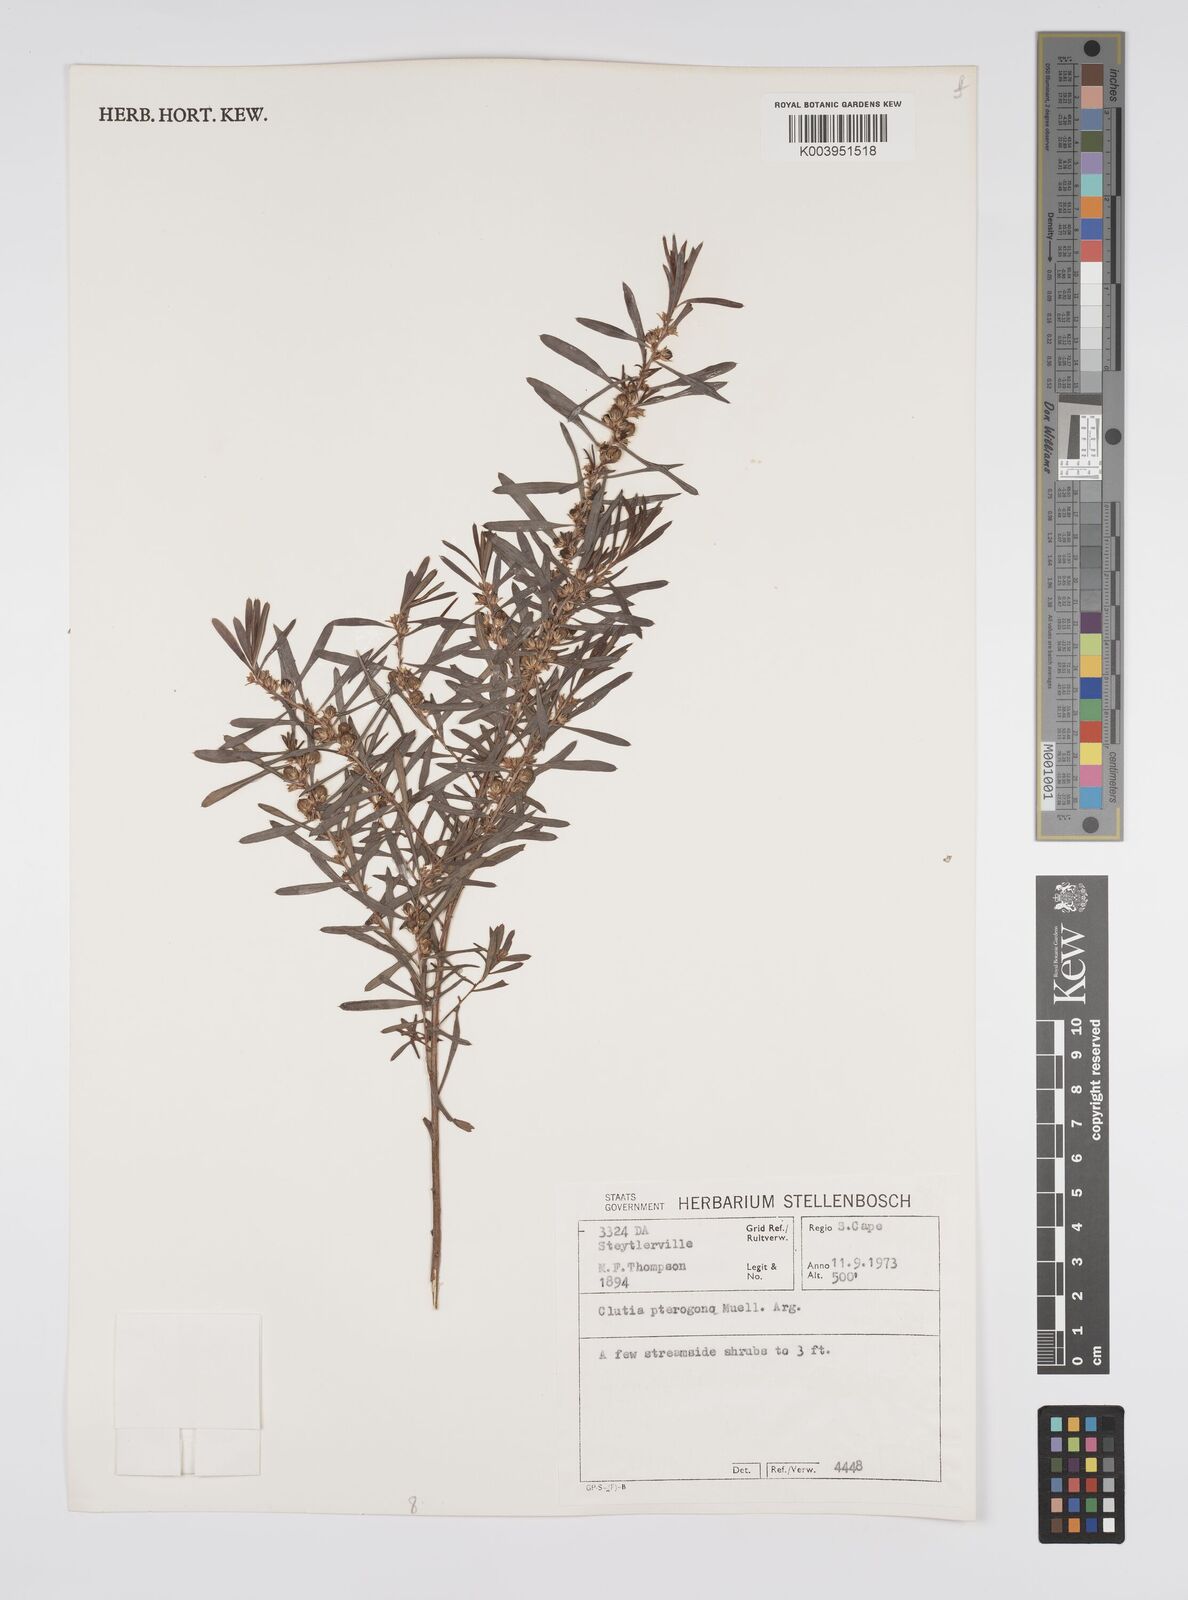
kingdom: Plantae
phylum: Tracheophyta
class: Magnoliopsida
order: Malpighiales
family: Peraceae
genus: Clutia
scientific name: Clutia pterogona
